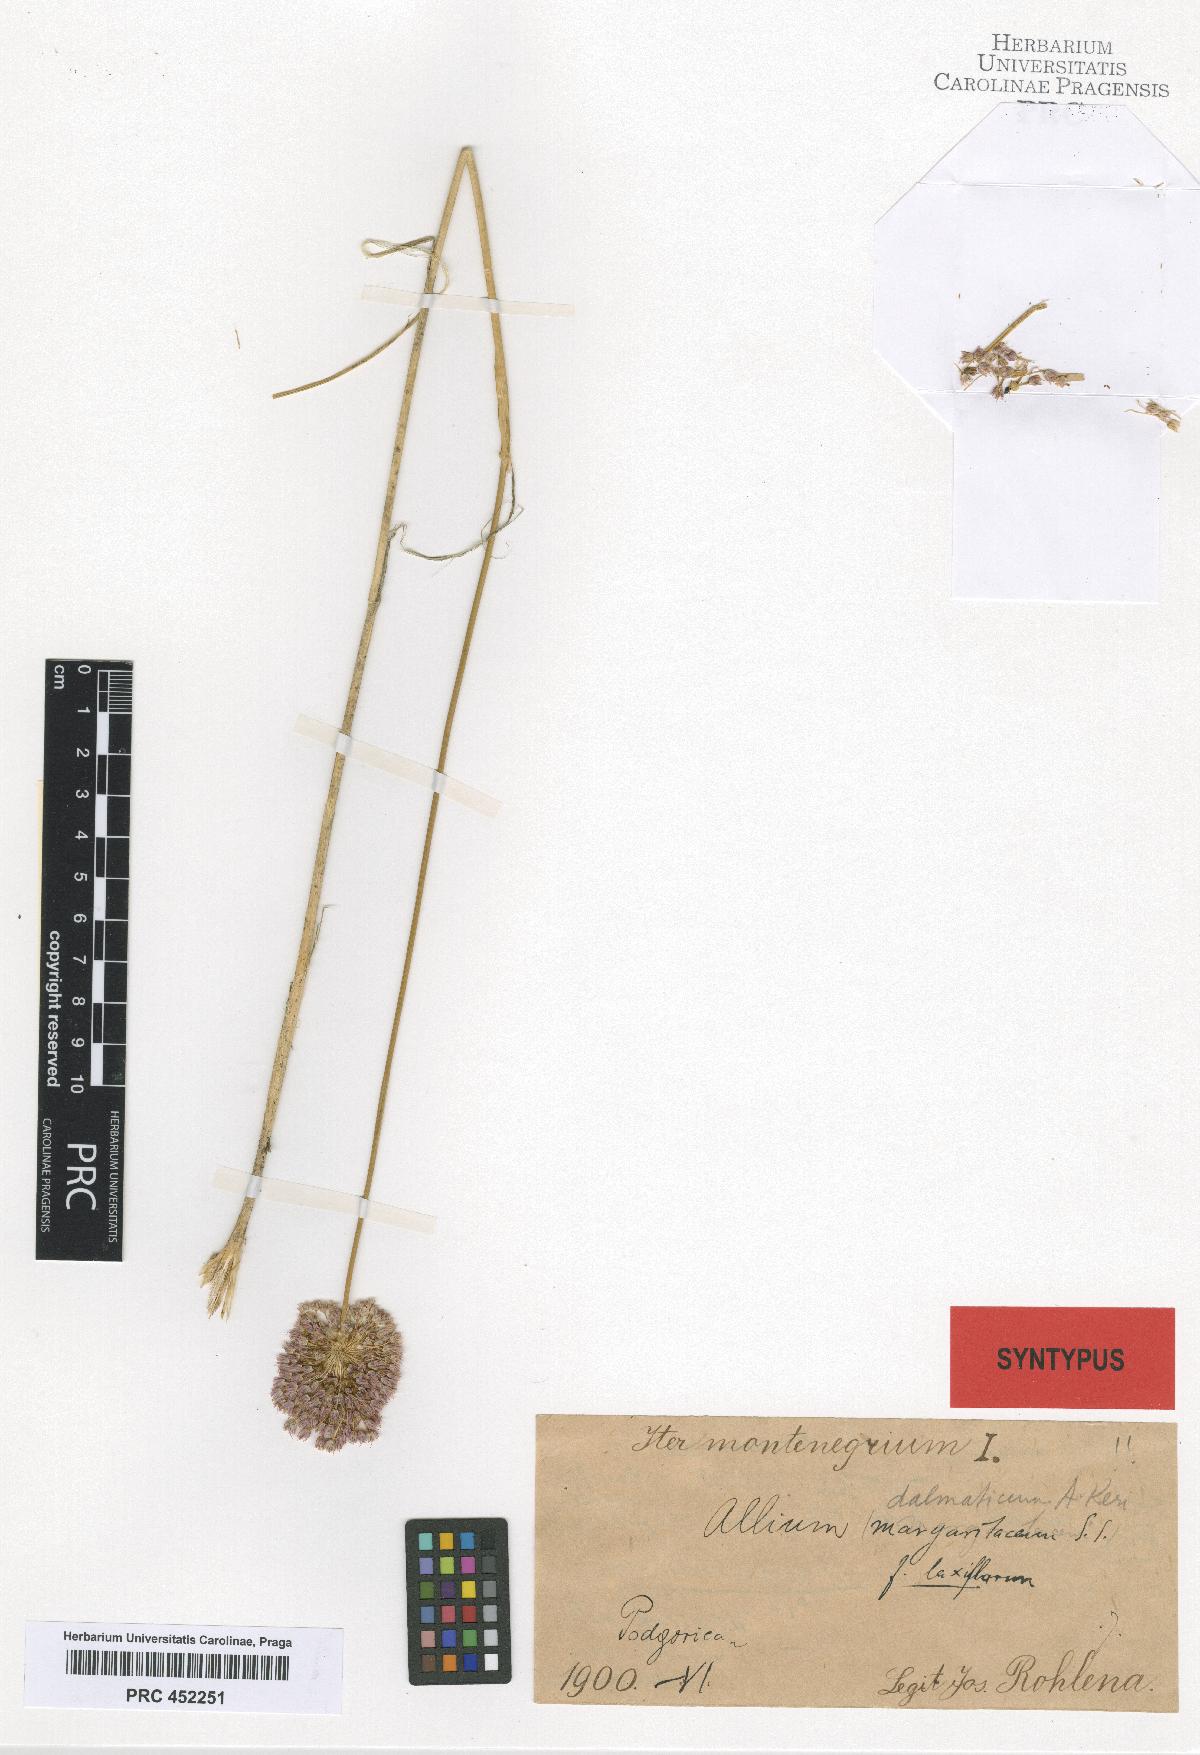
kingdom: Plantae
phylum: Tracheophyta
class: Liliopsida
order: Asparagales
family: Amaryllidaceae
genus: Allium
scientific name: Allium guttatum
